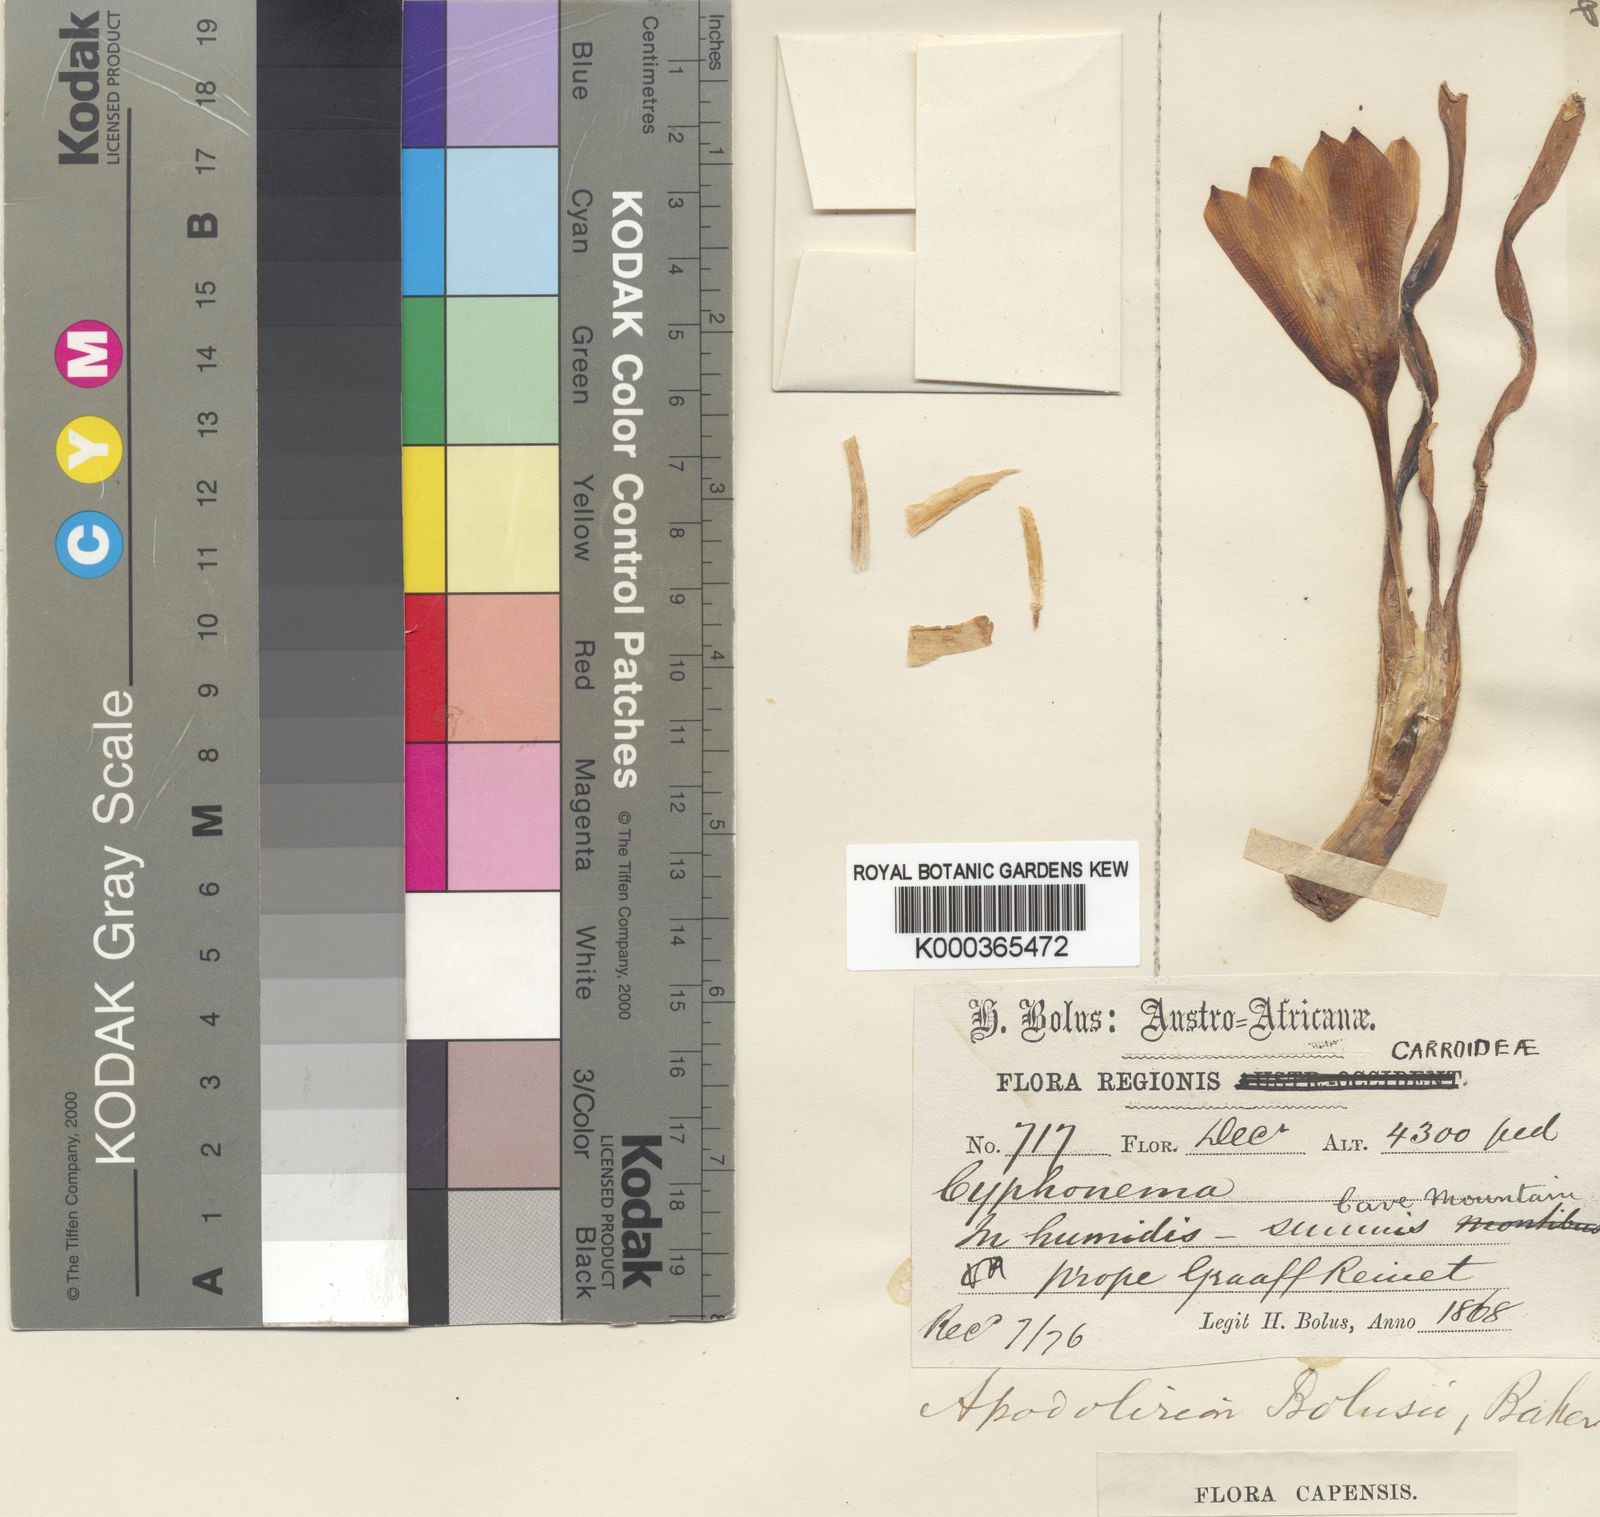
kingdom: Plantae
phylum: Tracheophyta
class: Liliopsida
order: Asparagales
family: Amaryllidaceae
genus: Apodolirion
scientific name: Apodolirion bolusii
